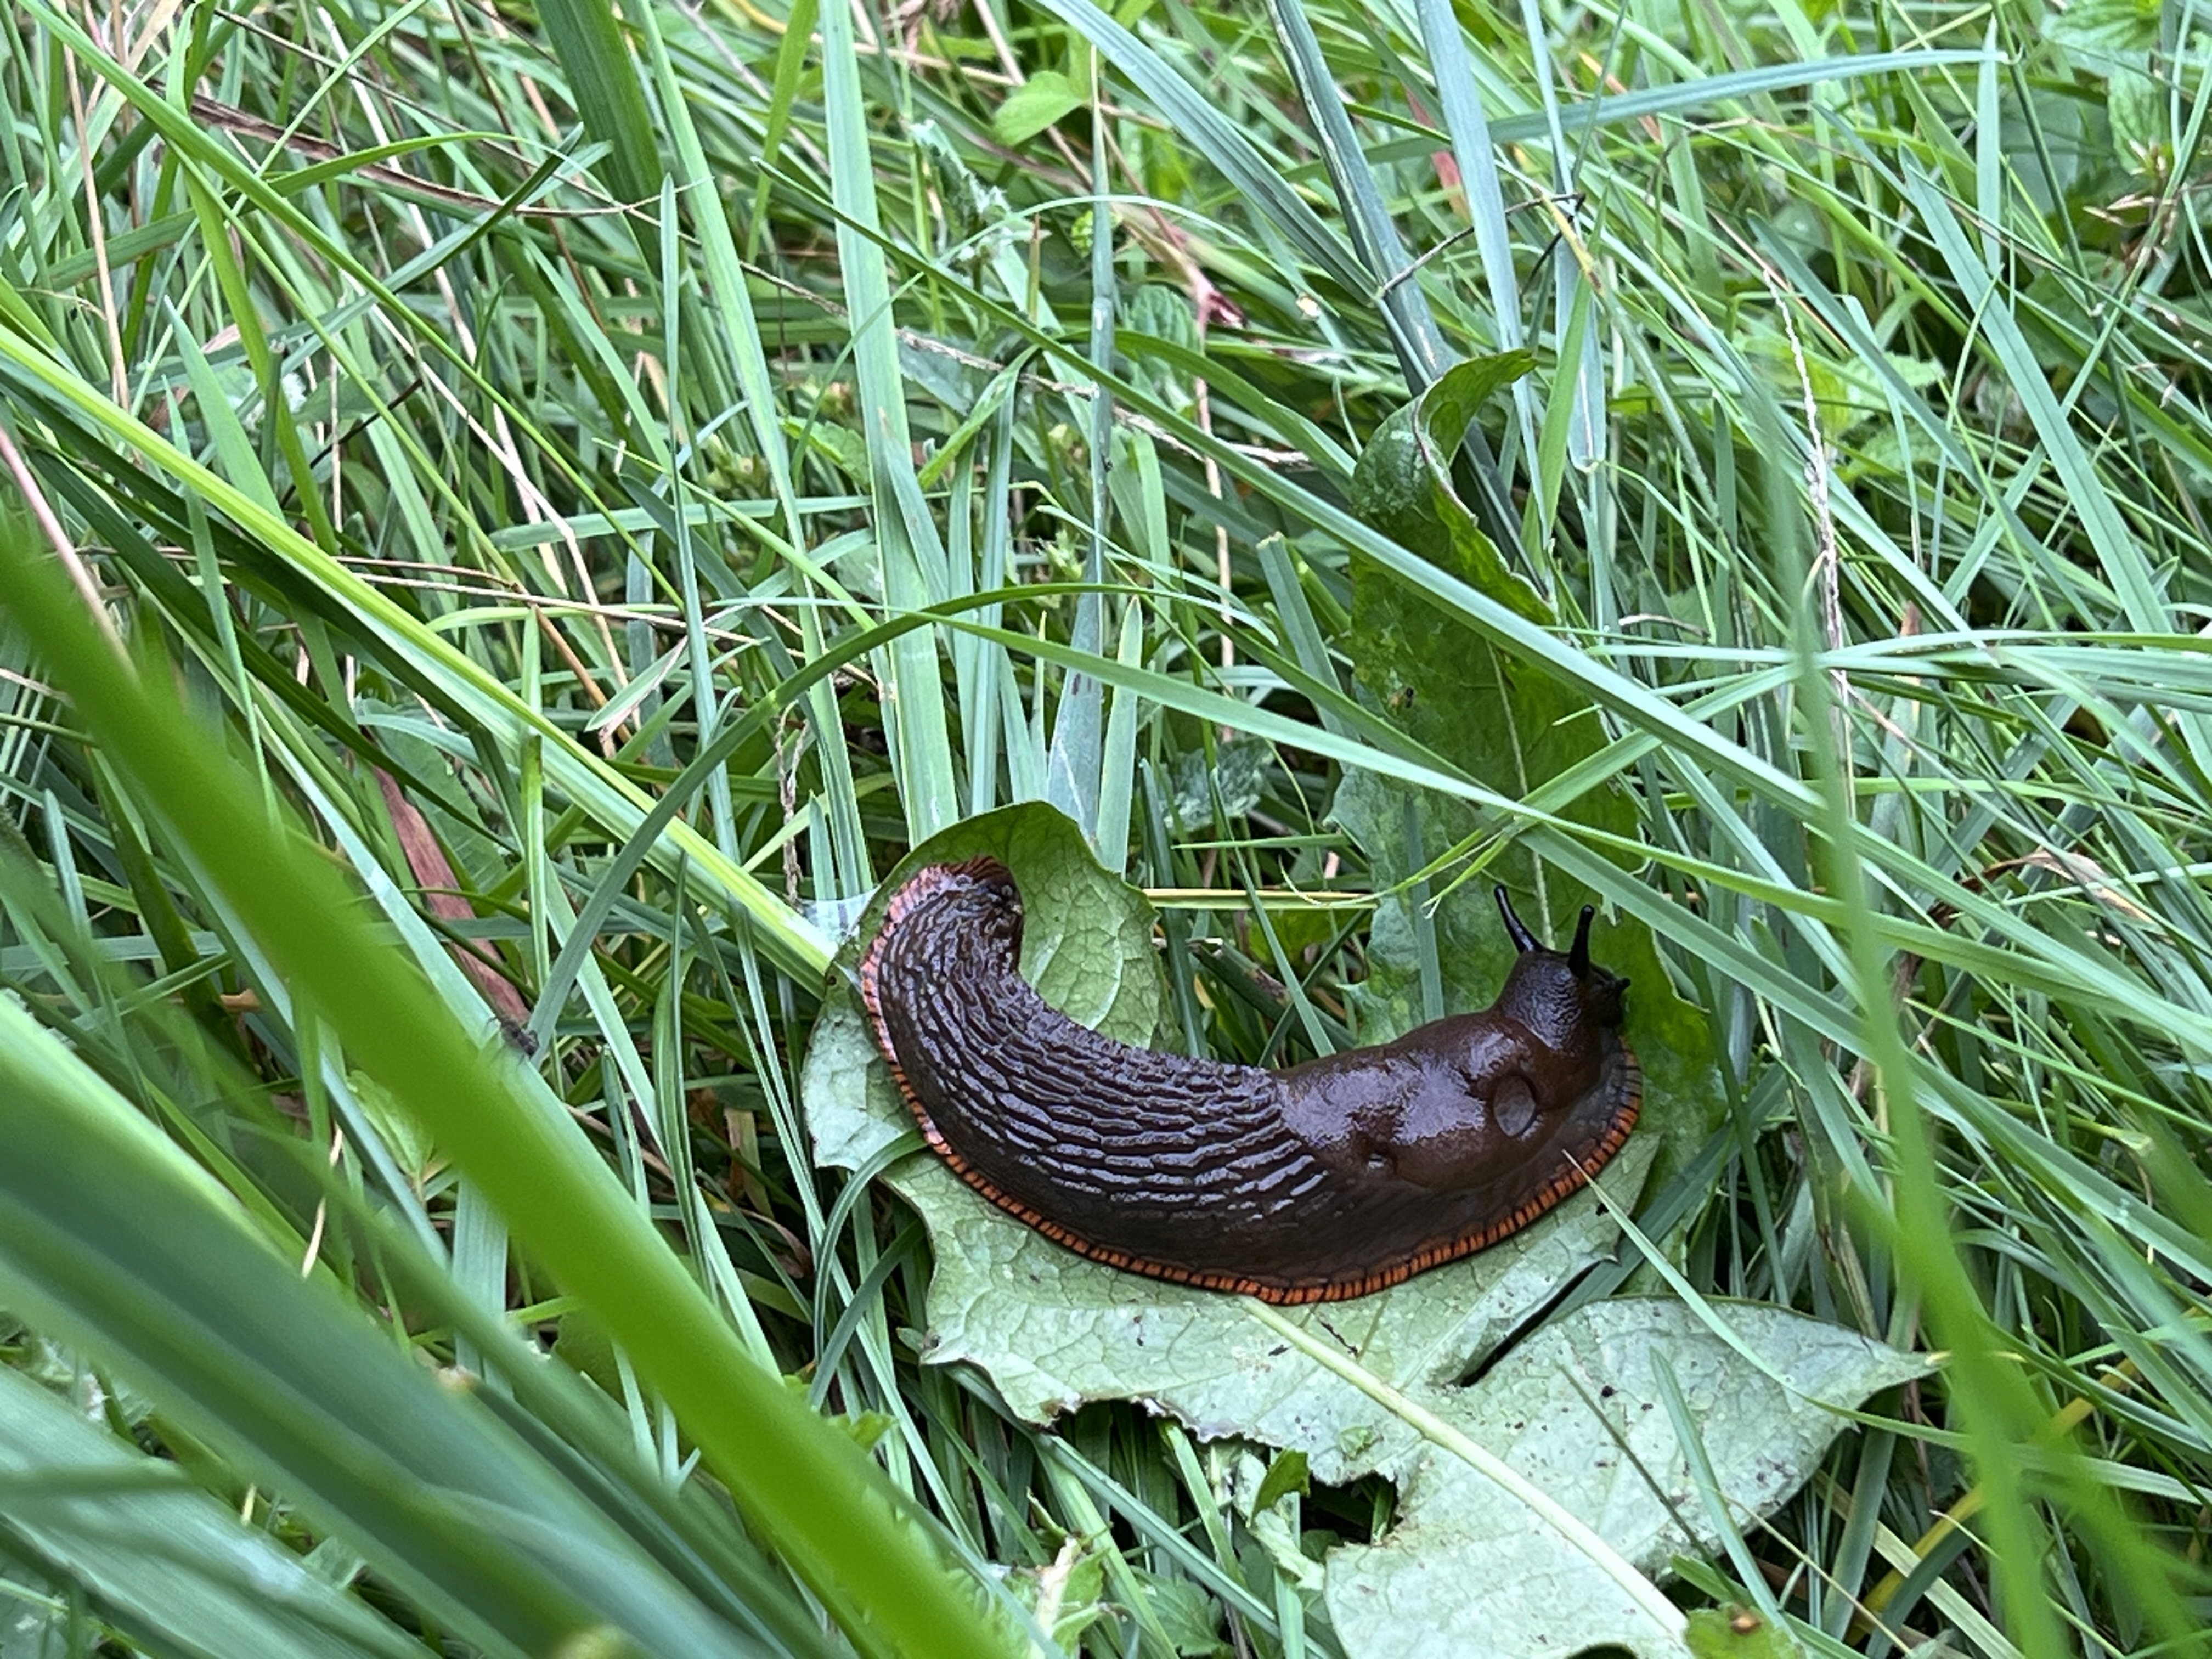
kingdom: Animalia
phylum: Mollusca
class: Gastropoda
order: Stylommatophora
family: Arionidae
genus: Arion
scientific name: Arion vulgaris
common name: Lusitanian slug
